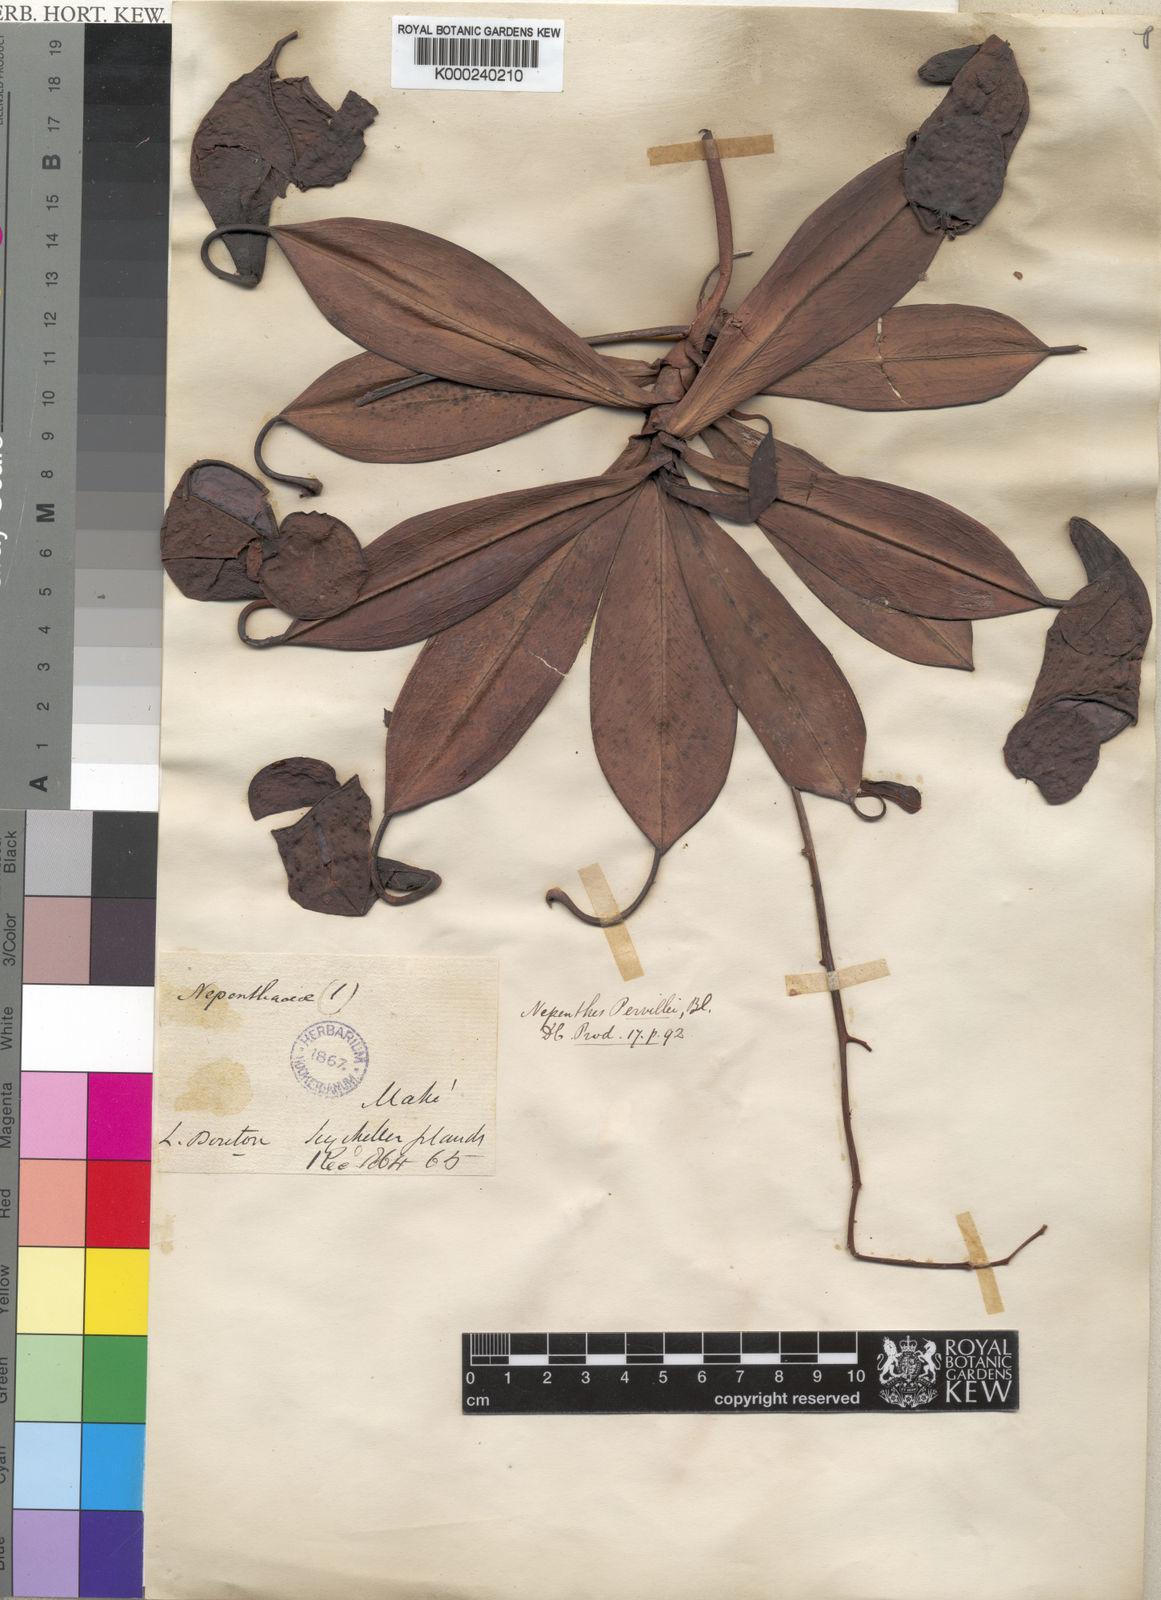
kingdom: Plantae
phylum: Tracheophyta
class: Magnoliopsida
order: Caryophyllales
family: Nepenthaceae
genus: Nepenthes
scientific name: Nepenthes pervillei
